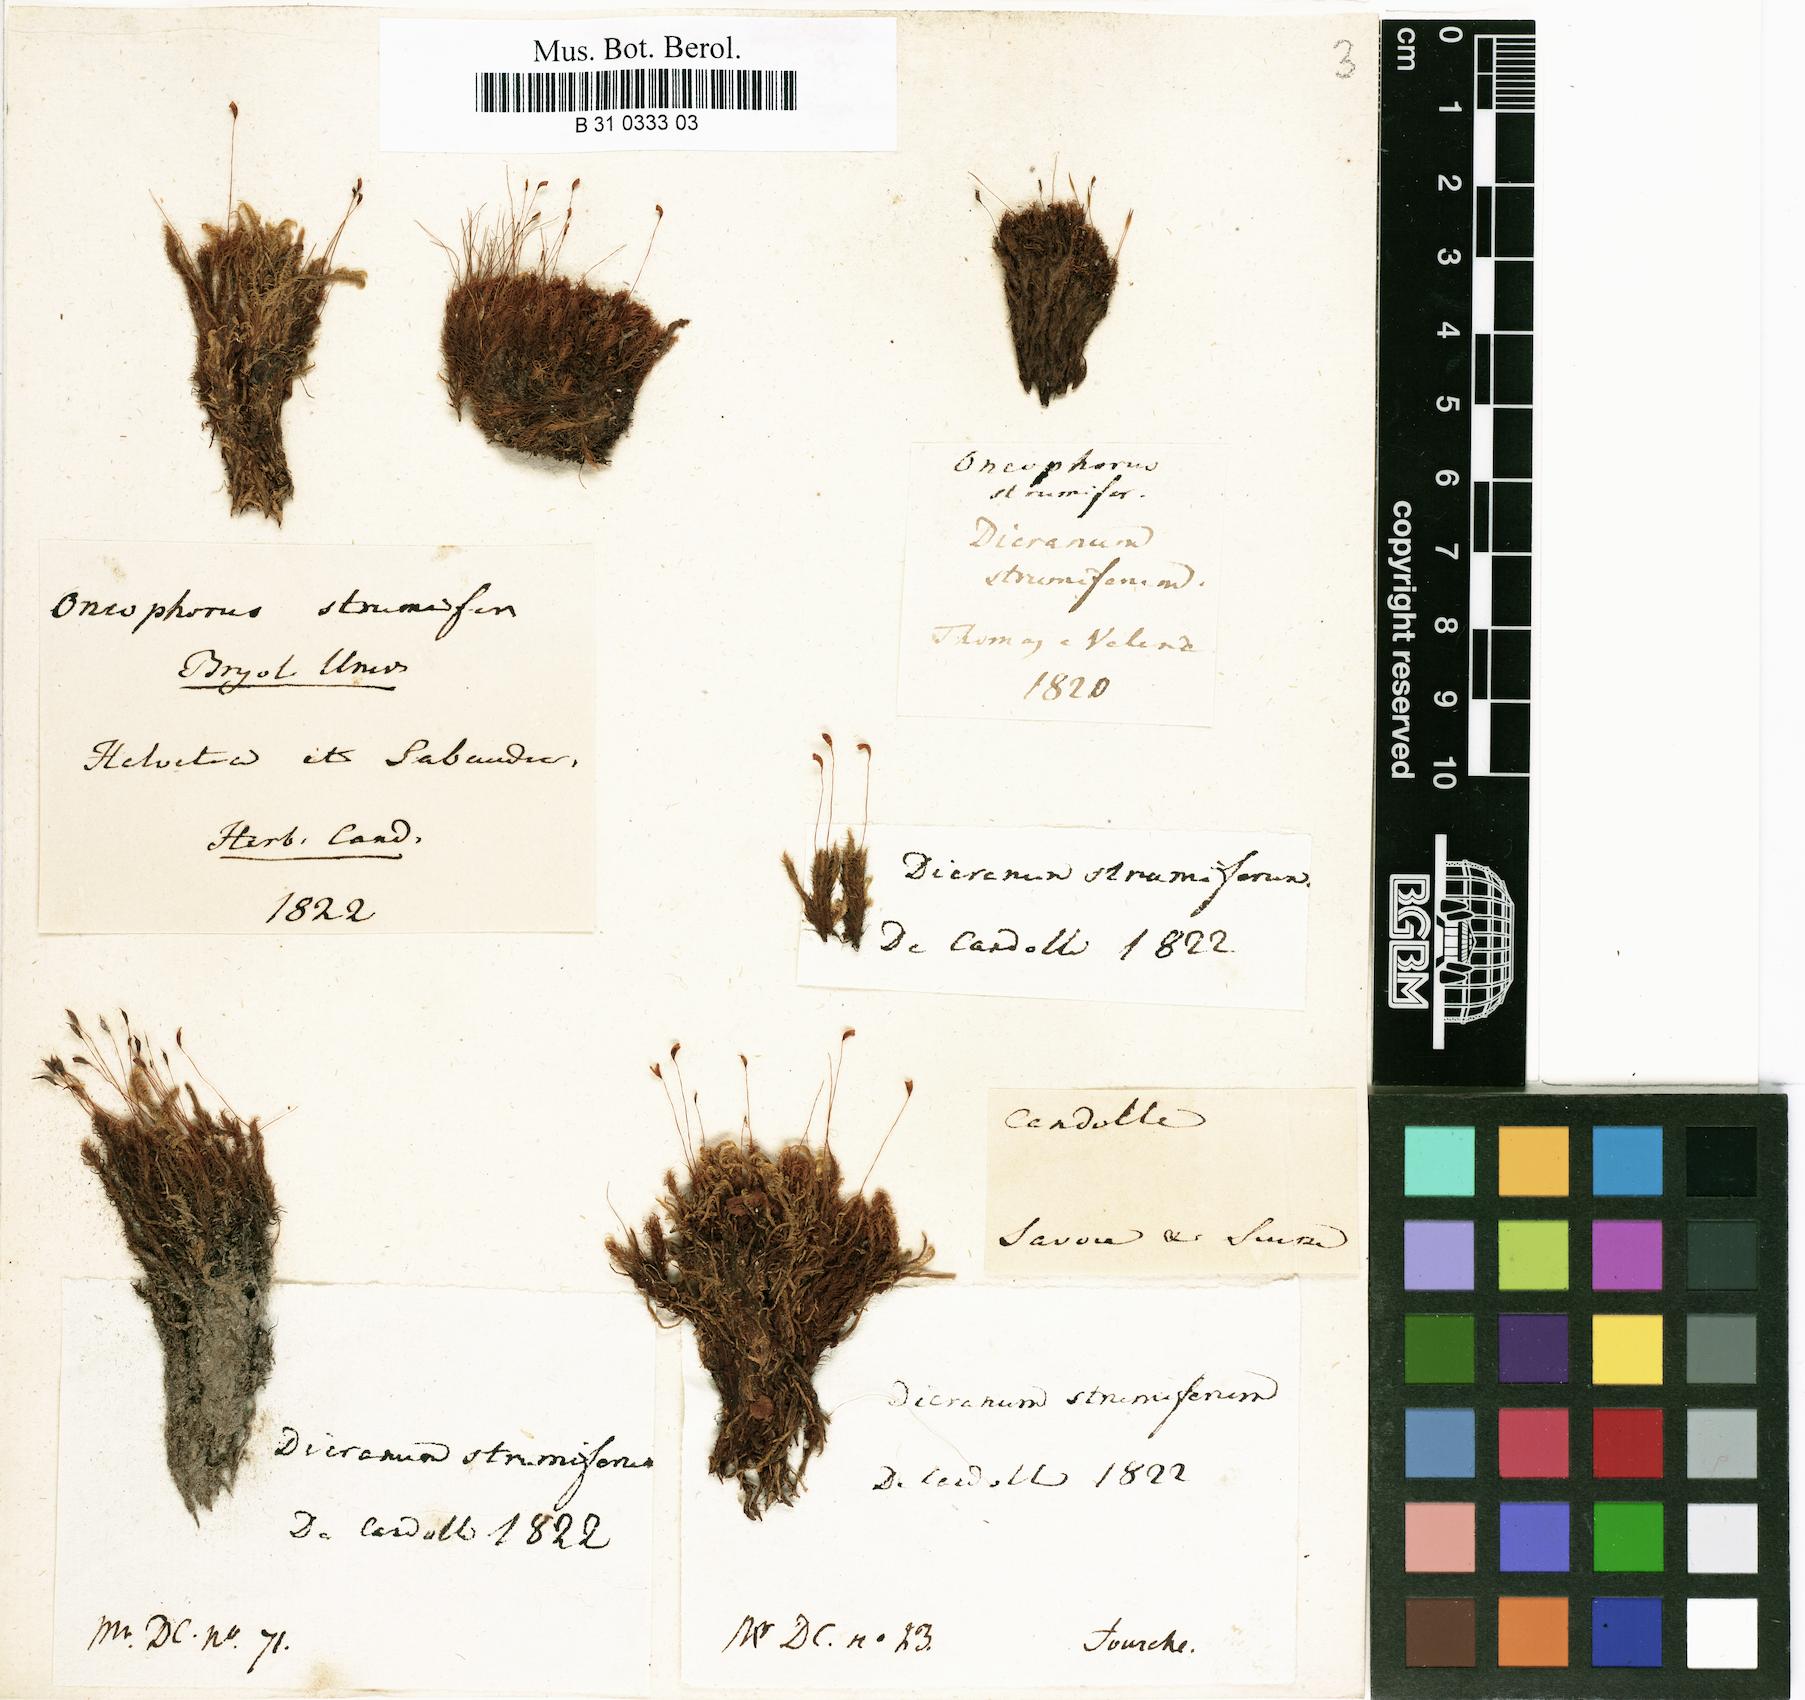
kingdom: Plantae
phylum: Bryophyta
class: Bryopsida
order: Dicranales
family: Rhabdoweisiaceae
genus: Cynodontium
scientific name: Cynodontium strumiferum
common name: Swollen dogtooth moss
